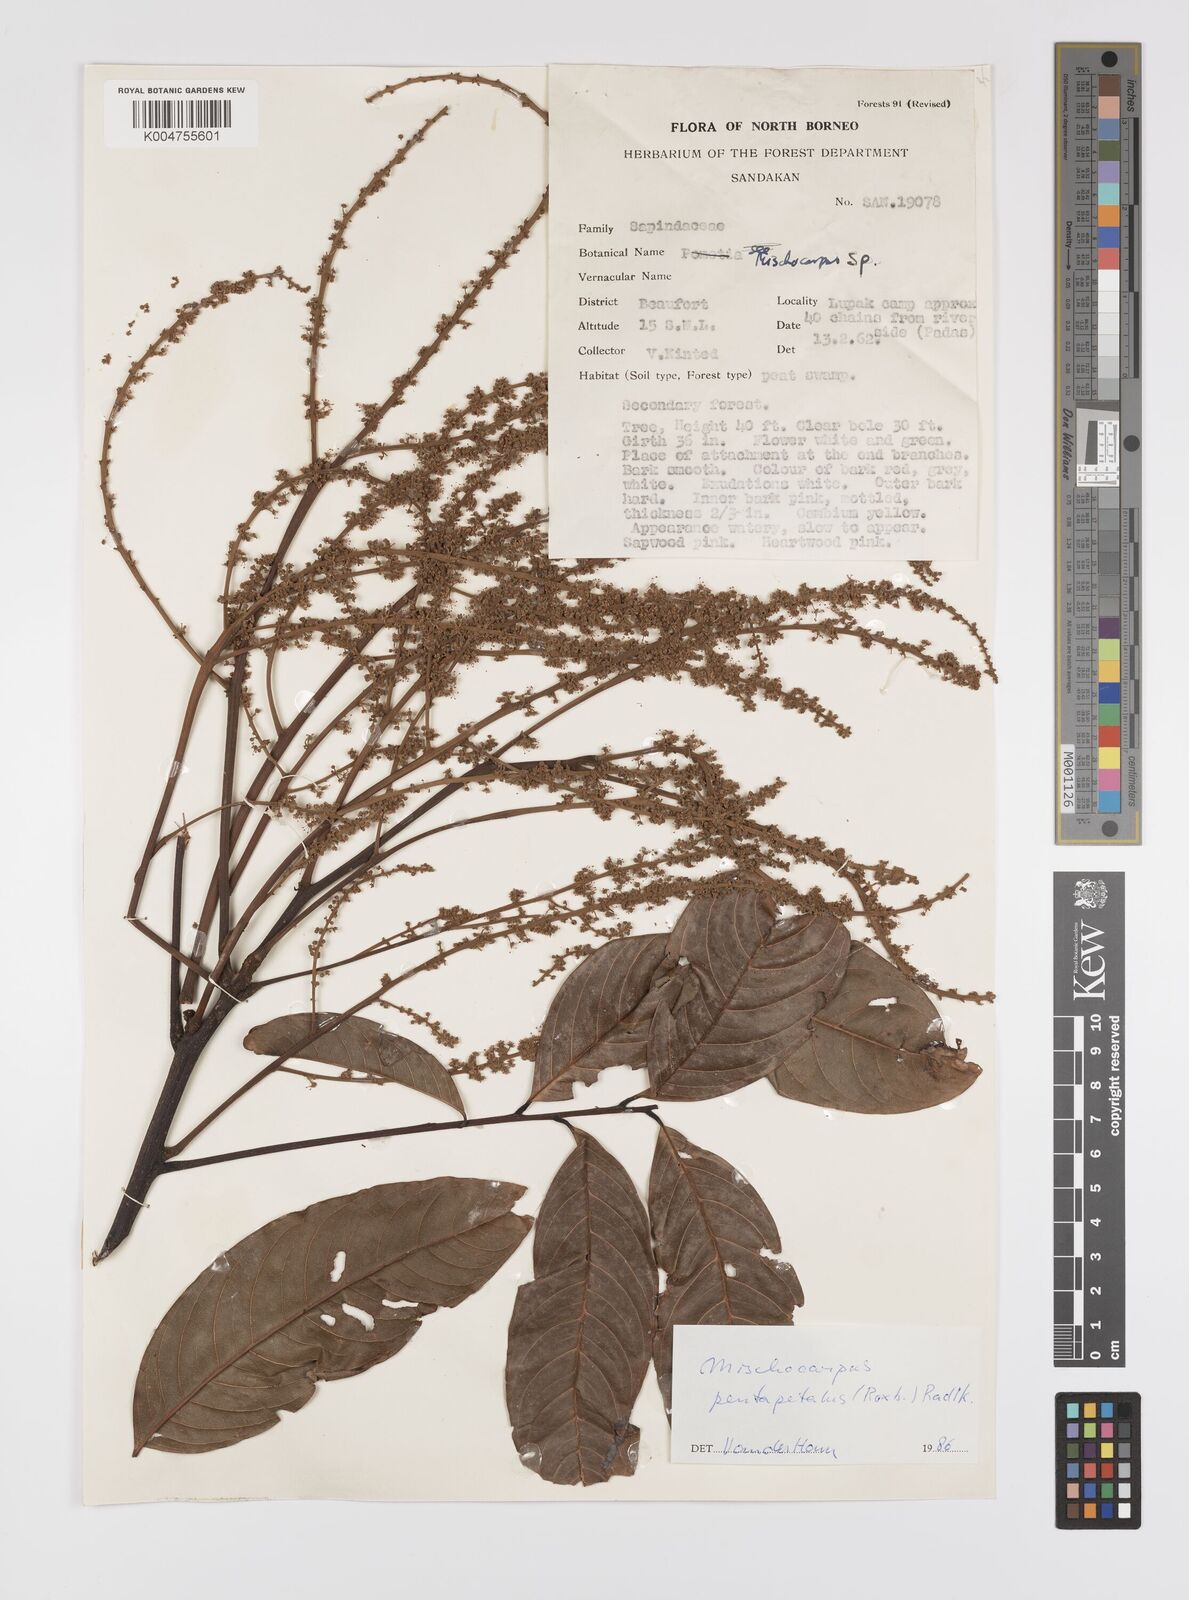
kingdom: Plantae
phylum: Tracheophyta
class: Magnoliopsida
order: Sapindales
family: Sapindaceae
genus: Mischocarpus
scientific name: Mischocarpus pentapetalus
